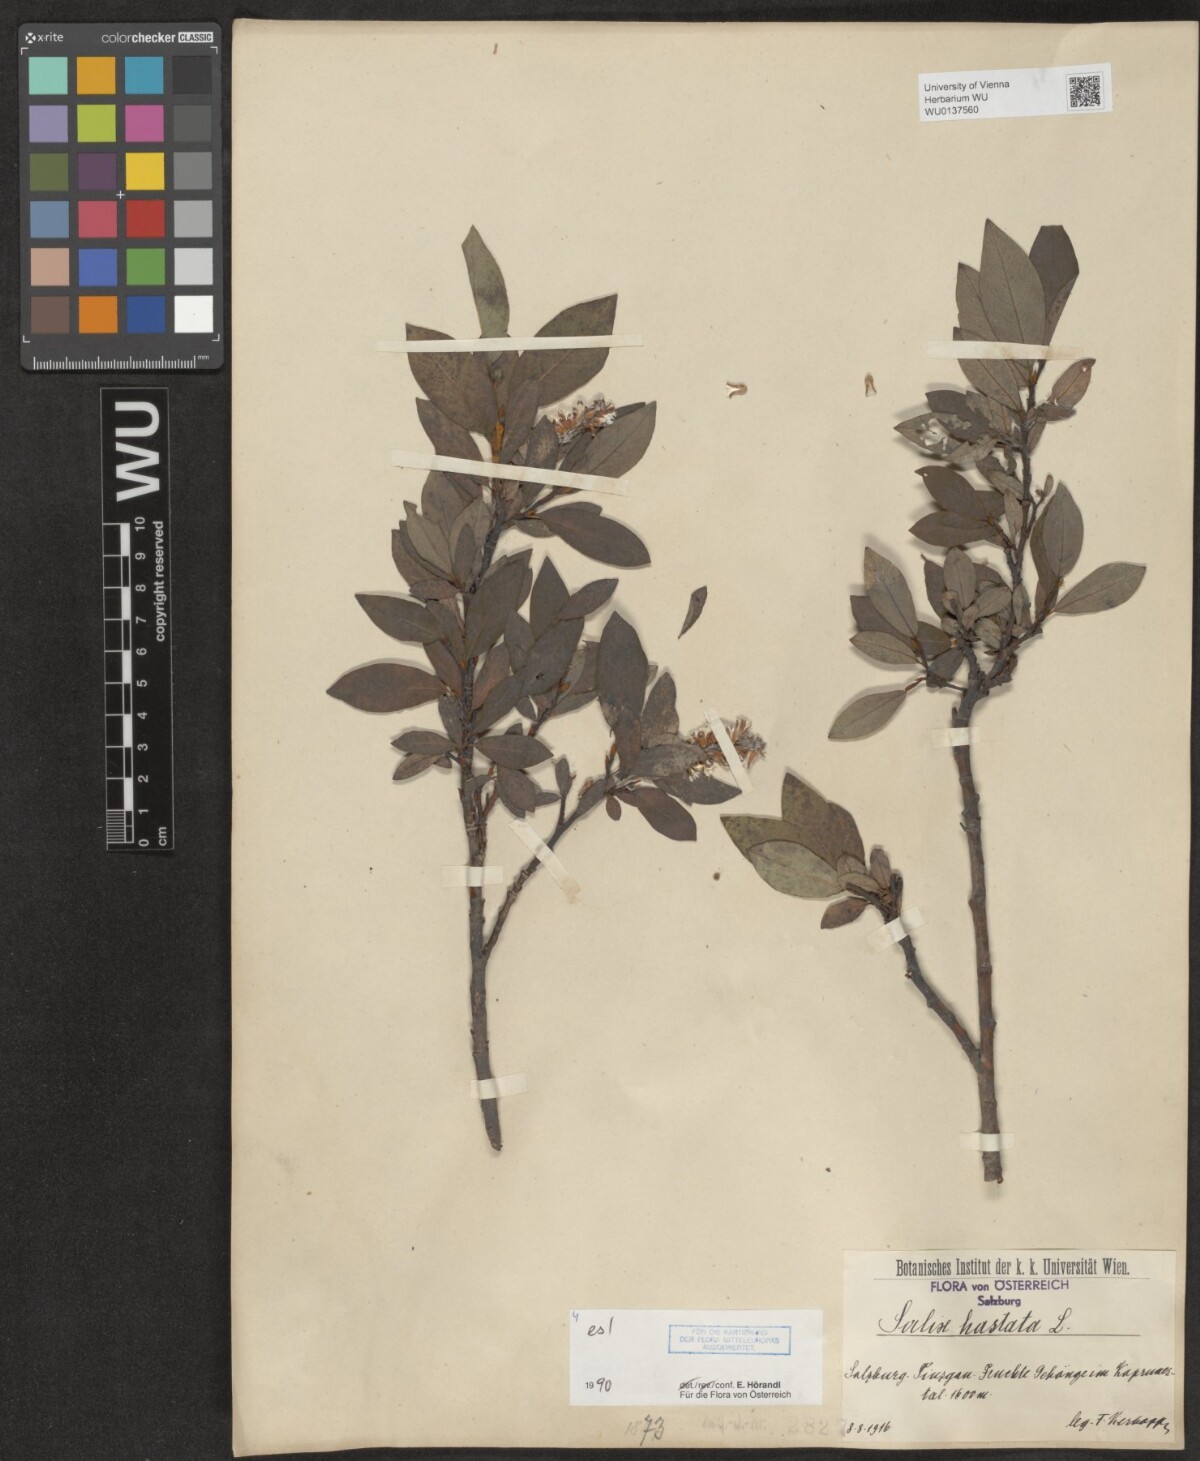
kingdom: Plantae
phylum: Tracheophyta
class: Magnoliopsida
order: Malpighiales
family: Salicaceae
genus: Salix
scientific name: Salix hastata
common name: Halberd willow
